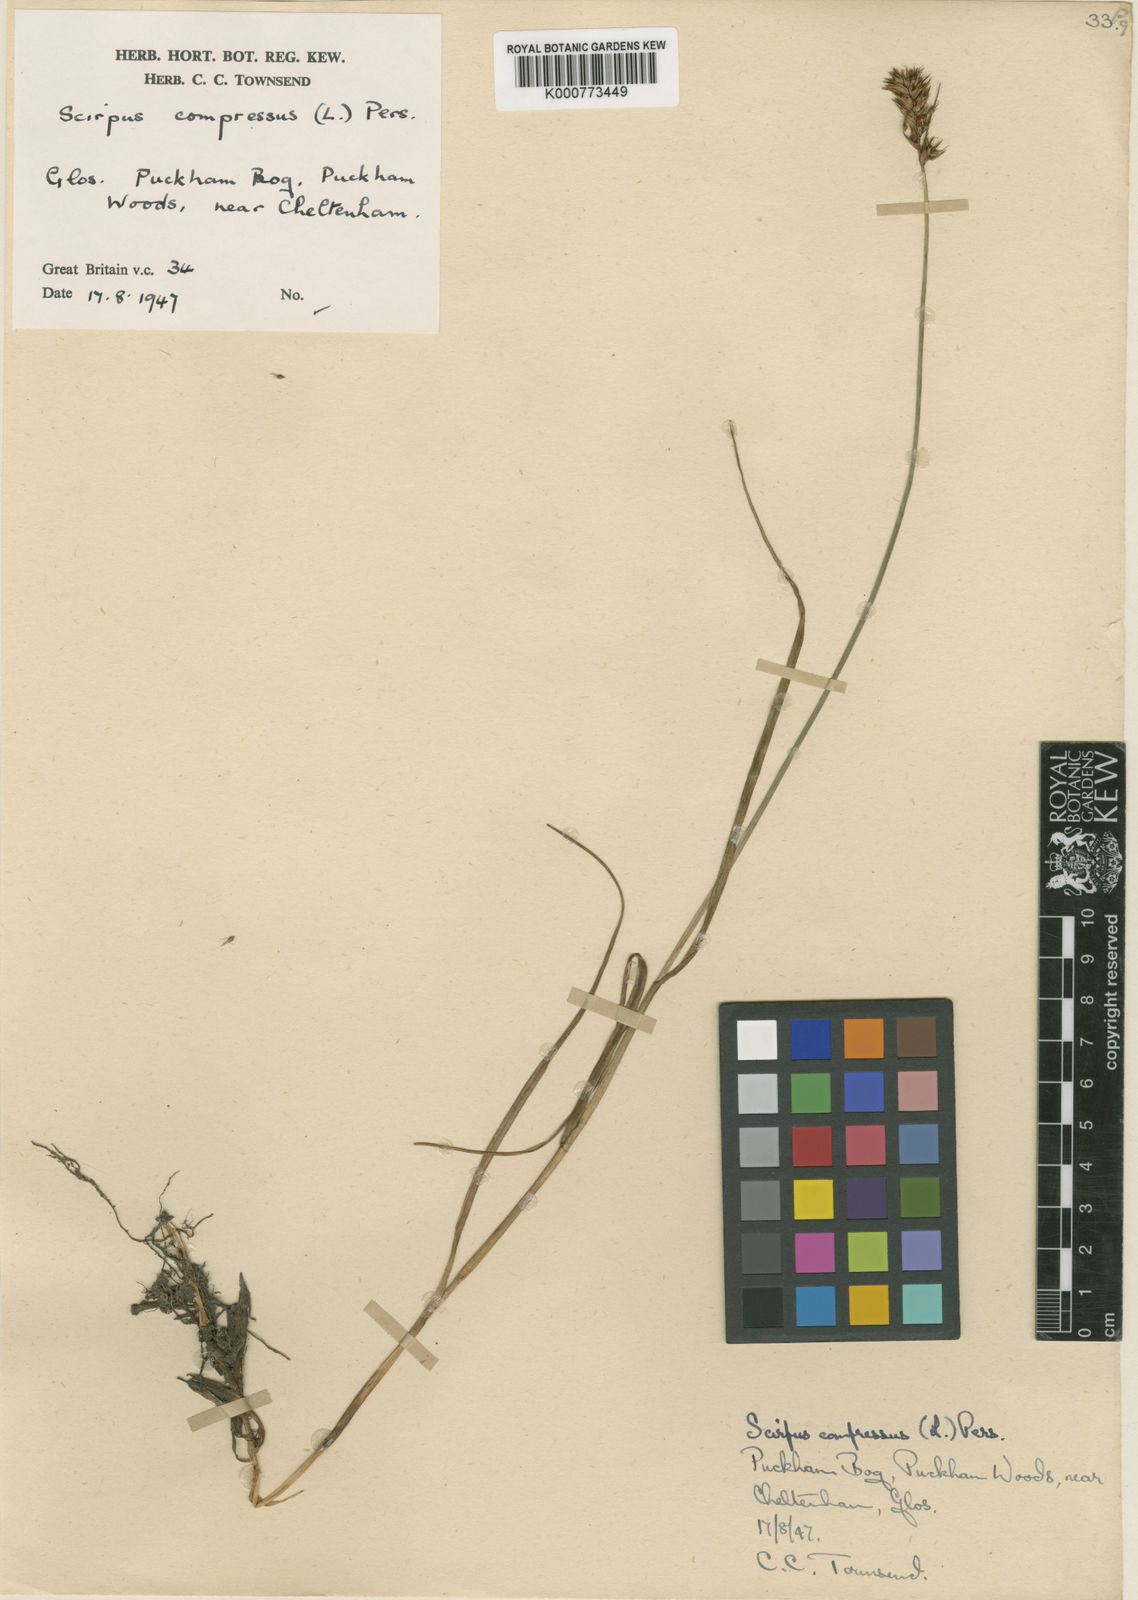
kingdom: Plantae
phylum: Tracheophyta
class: Liliopsida
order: Poales
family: Cyperaceae
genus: Blysmus
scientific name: Blysmus compressus
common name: Flat-sedge
